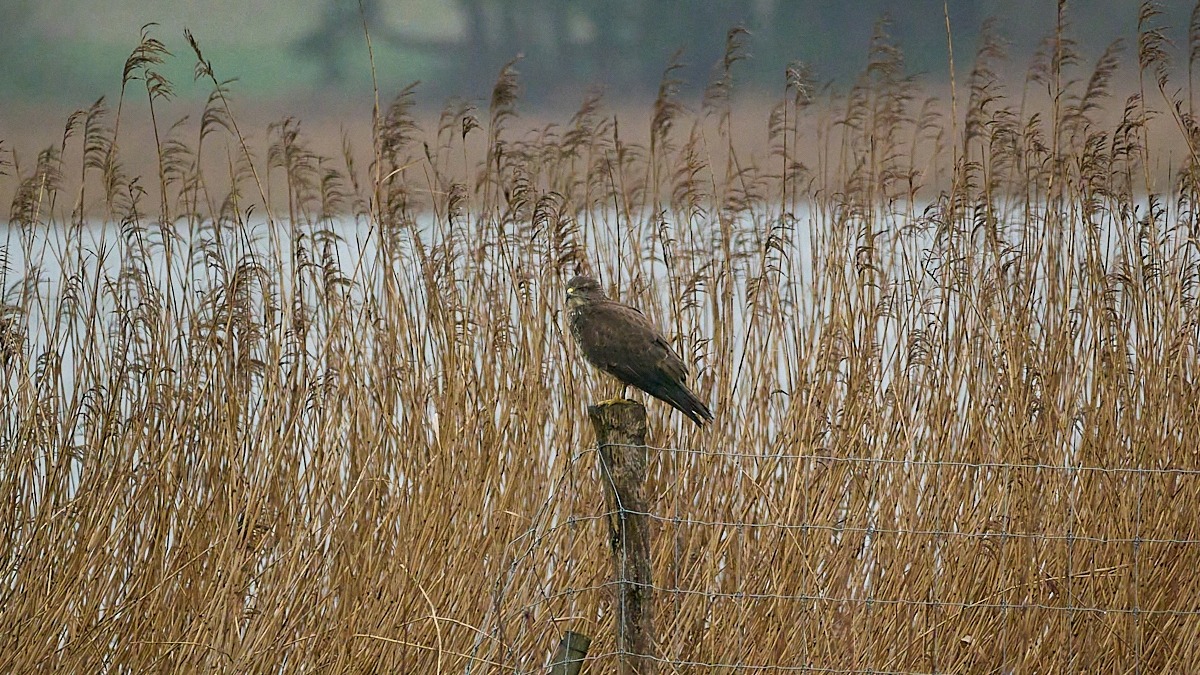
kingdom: Animalia
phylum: Chordata
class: Aves
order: Accipitriformes
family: Accipitridae
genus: Buteo
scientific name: Buteo buteo
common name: Musvåge
